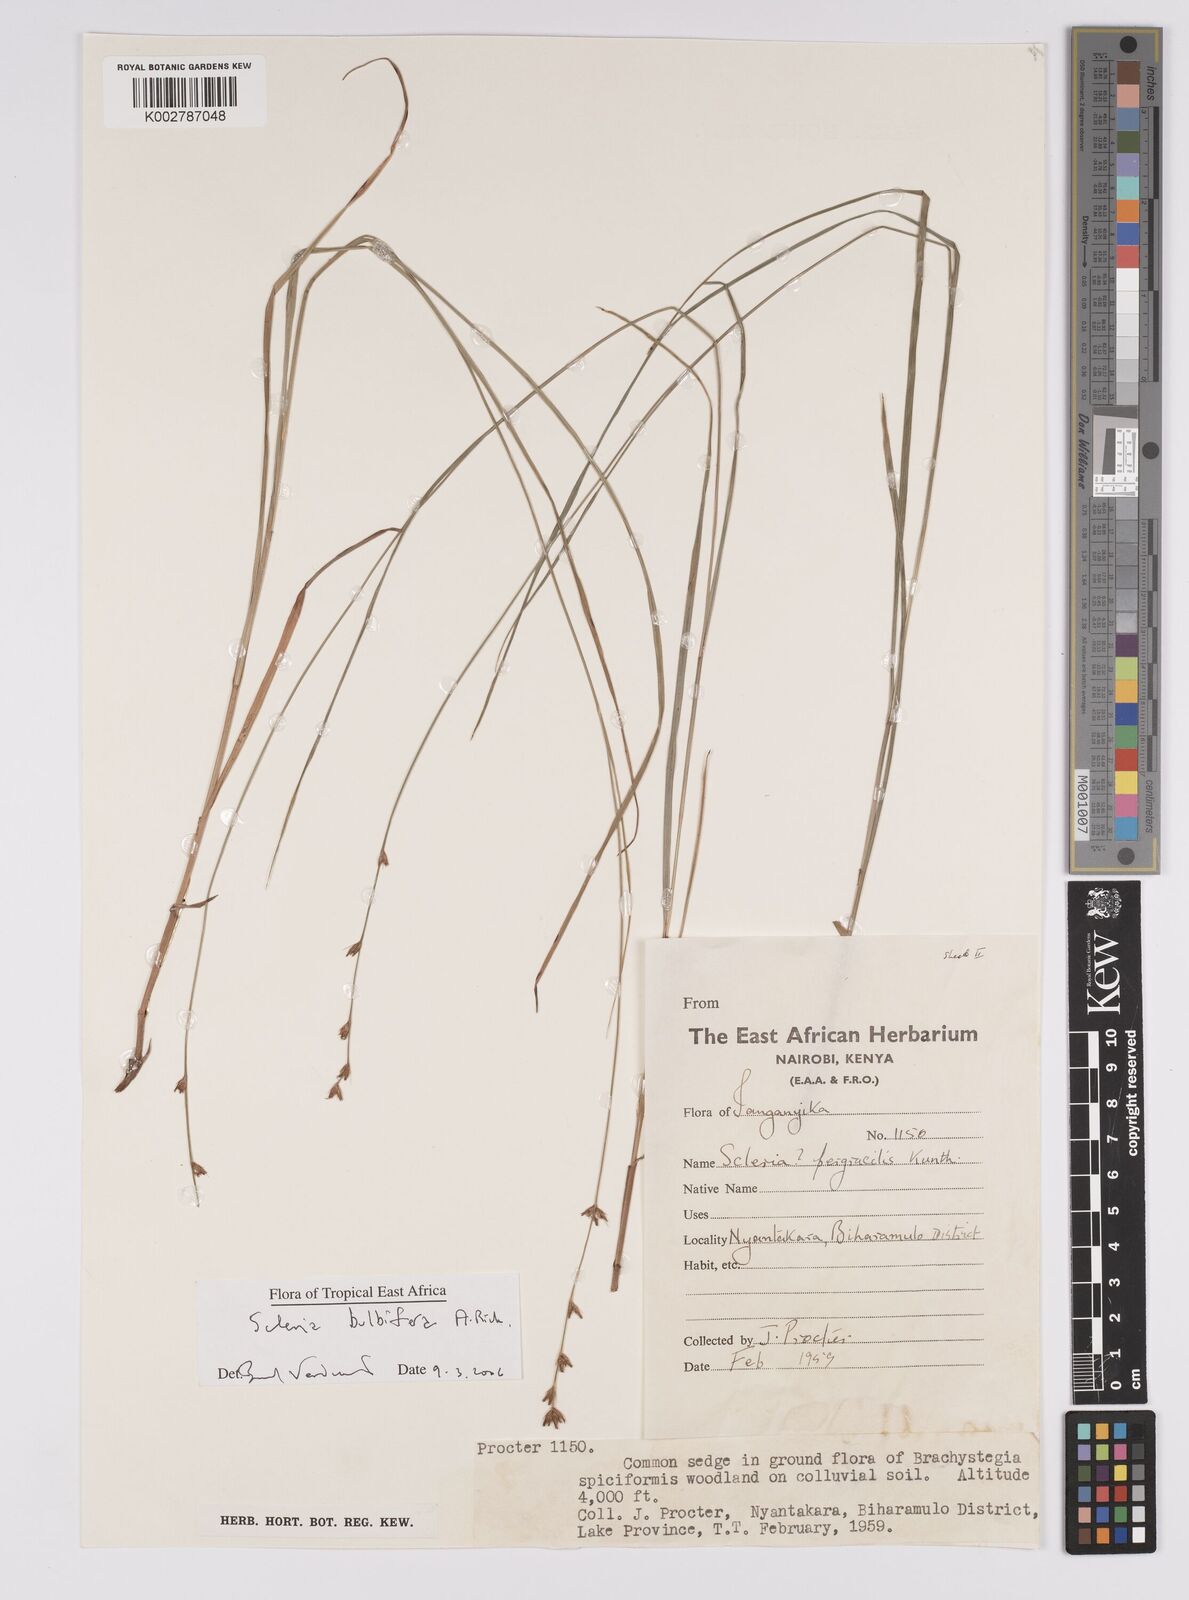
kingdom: Plantae
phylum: Tracheophyta
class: Liliopsida
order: Poales
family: Cyperaceae
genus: Scleria
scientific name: Scleria bulbifera
